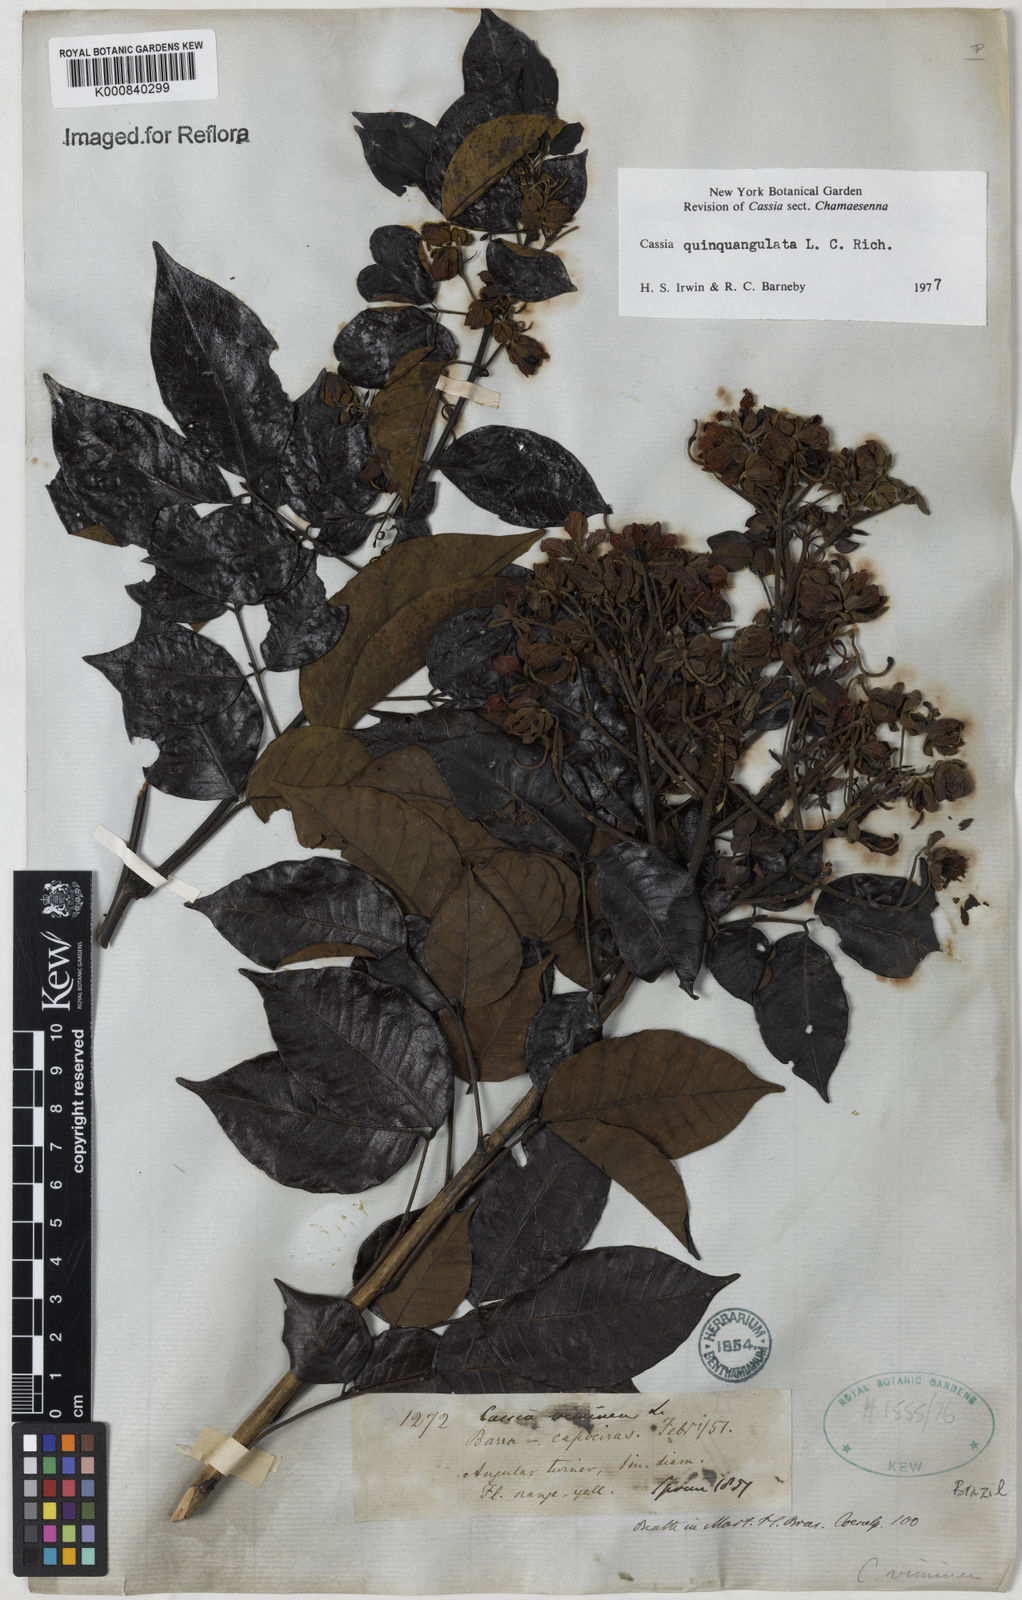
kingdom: Plantae
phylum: Tracheophyta
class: Magnoliopsida
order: Fabales
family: Fabaceae
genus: Senna
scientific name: Senna
